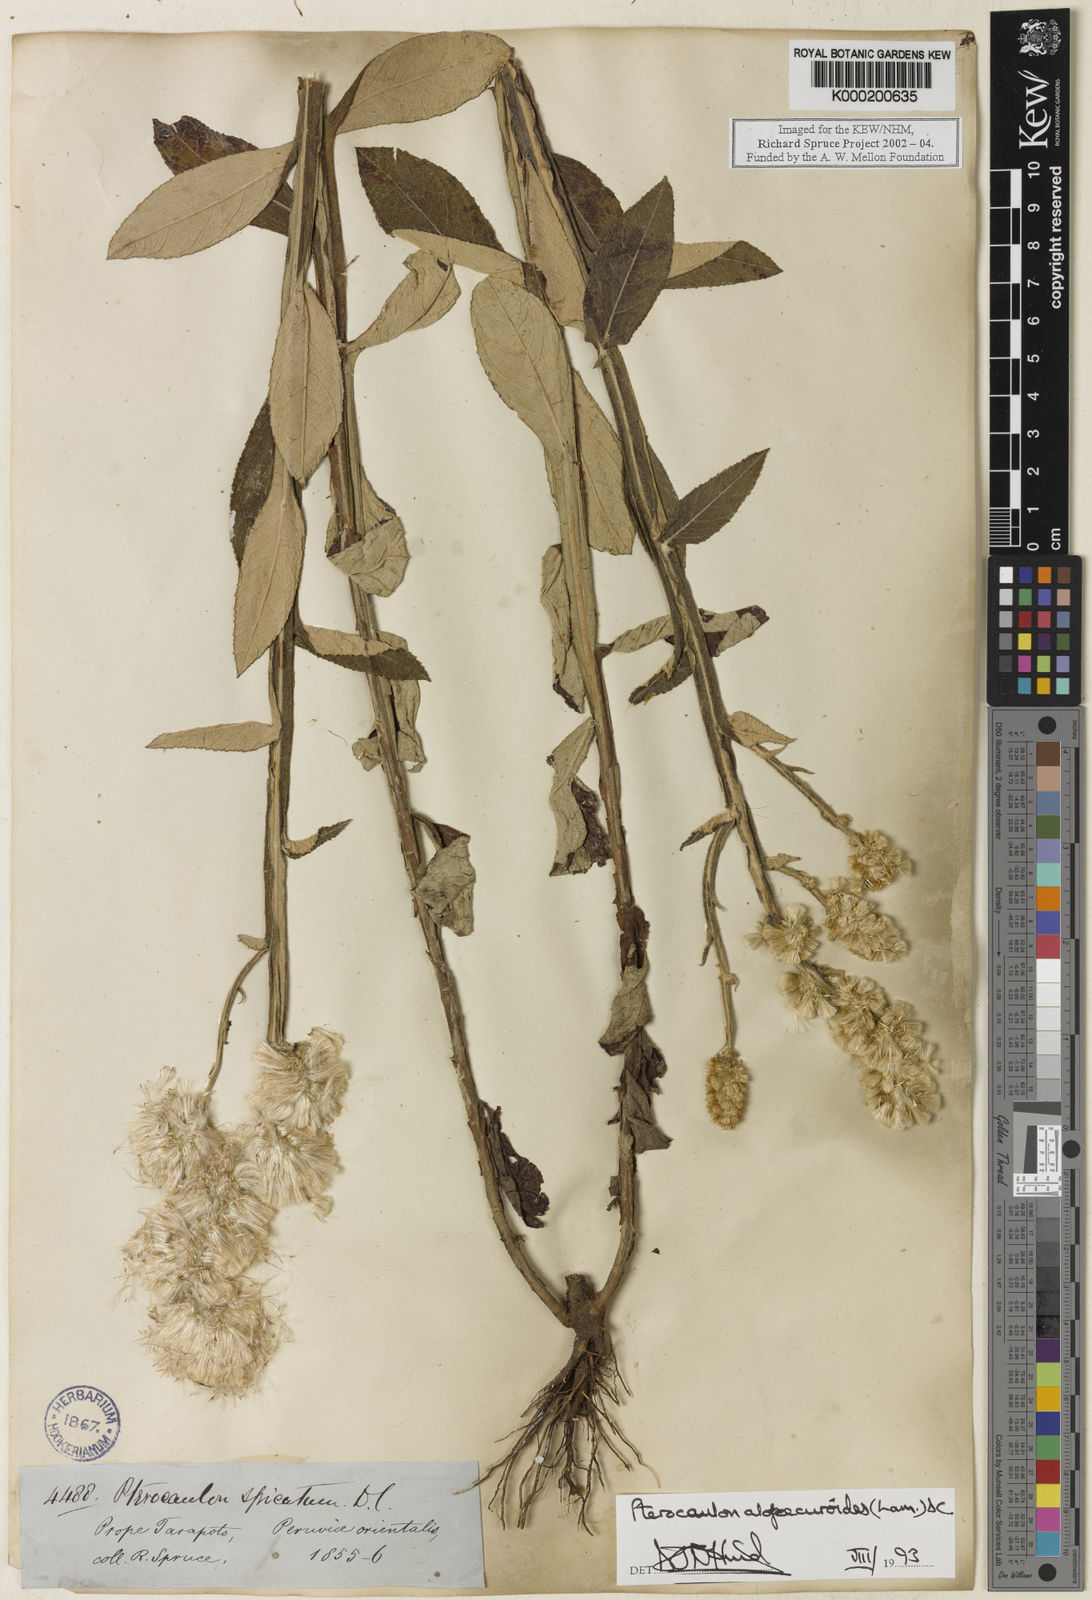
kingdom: Plantae
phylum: Tracheophyta
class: Magnoliopsida
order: Asterales
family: Asteraceae
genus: Pterocaulon
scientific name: Pterocaulon alopecuroides
